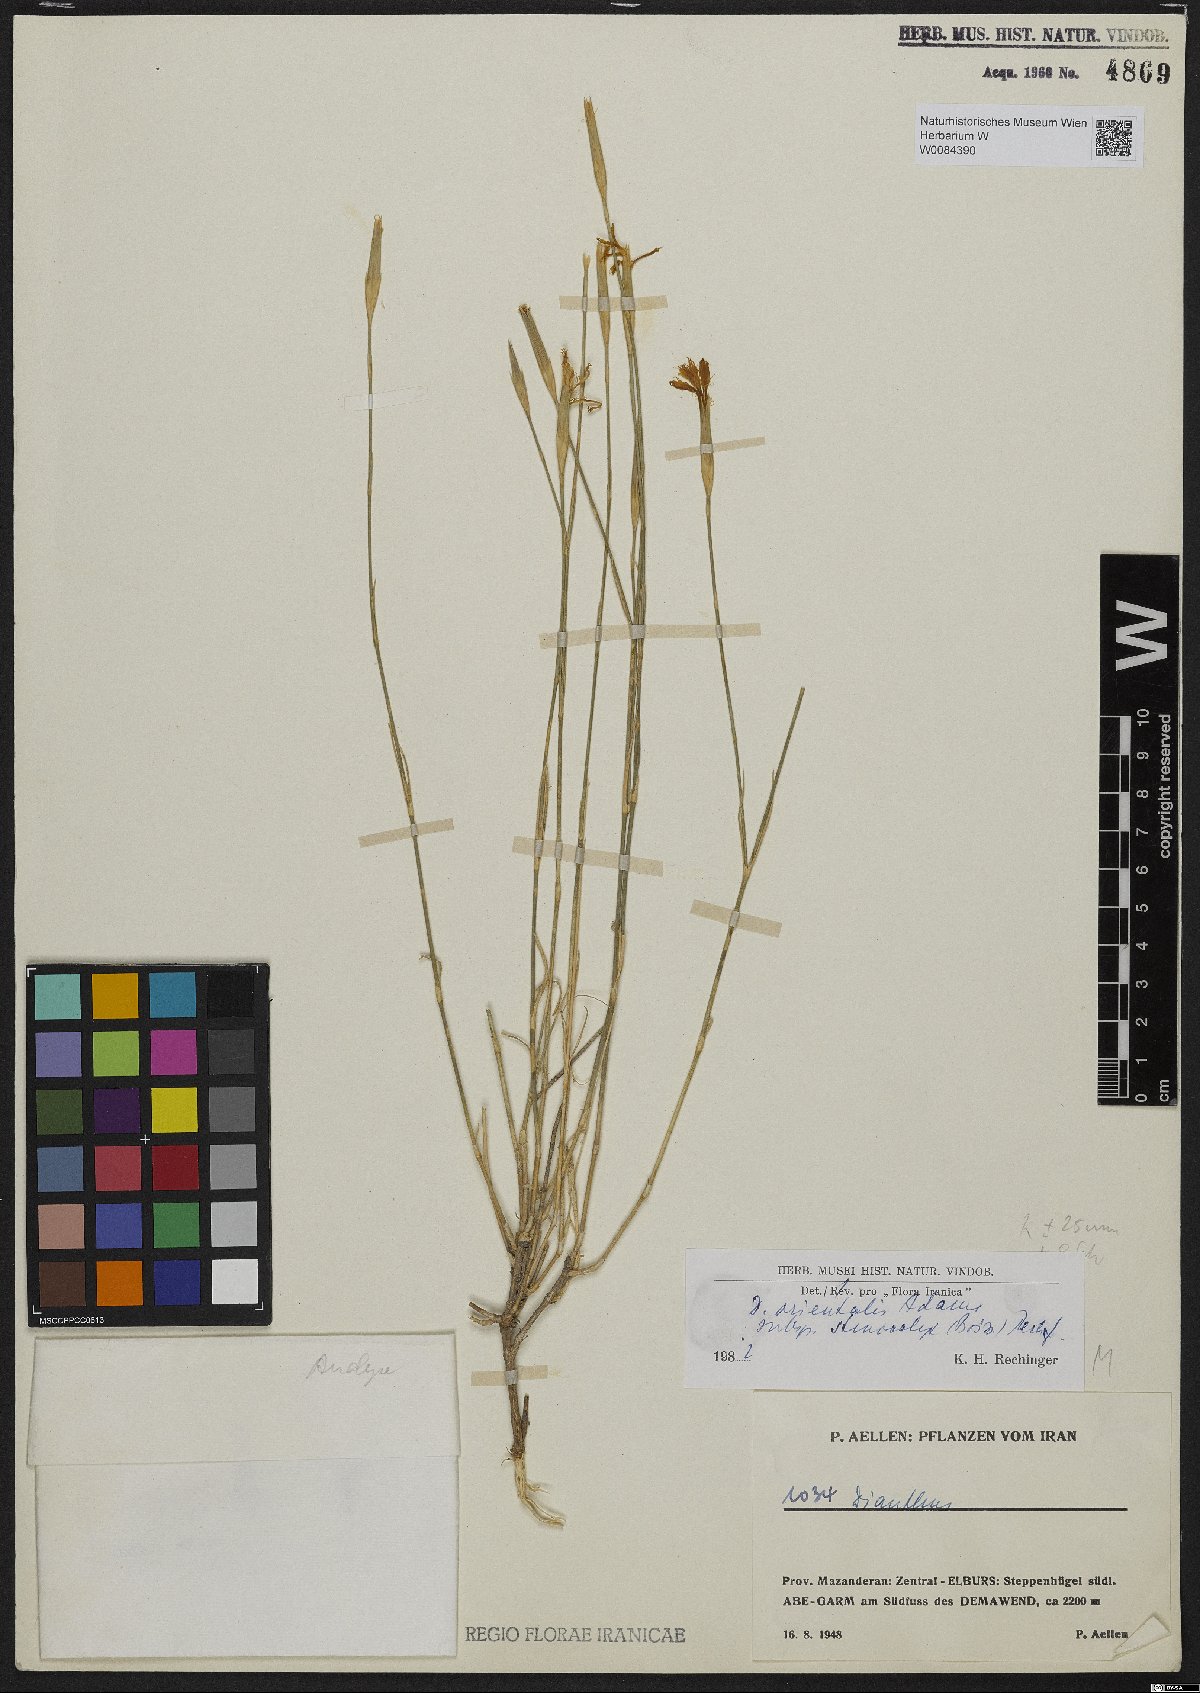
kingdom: Plantae
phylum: Tracheophyta
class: Magnoliopsida
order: Caryophyllales
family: Caryophyllaceae
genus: Dianthus
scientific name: Dianthus orientalis
